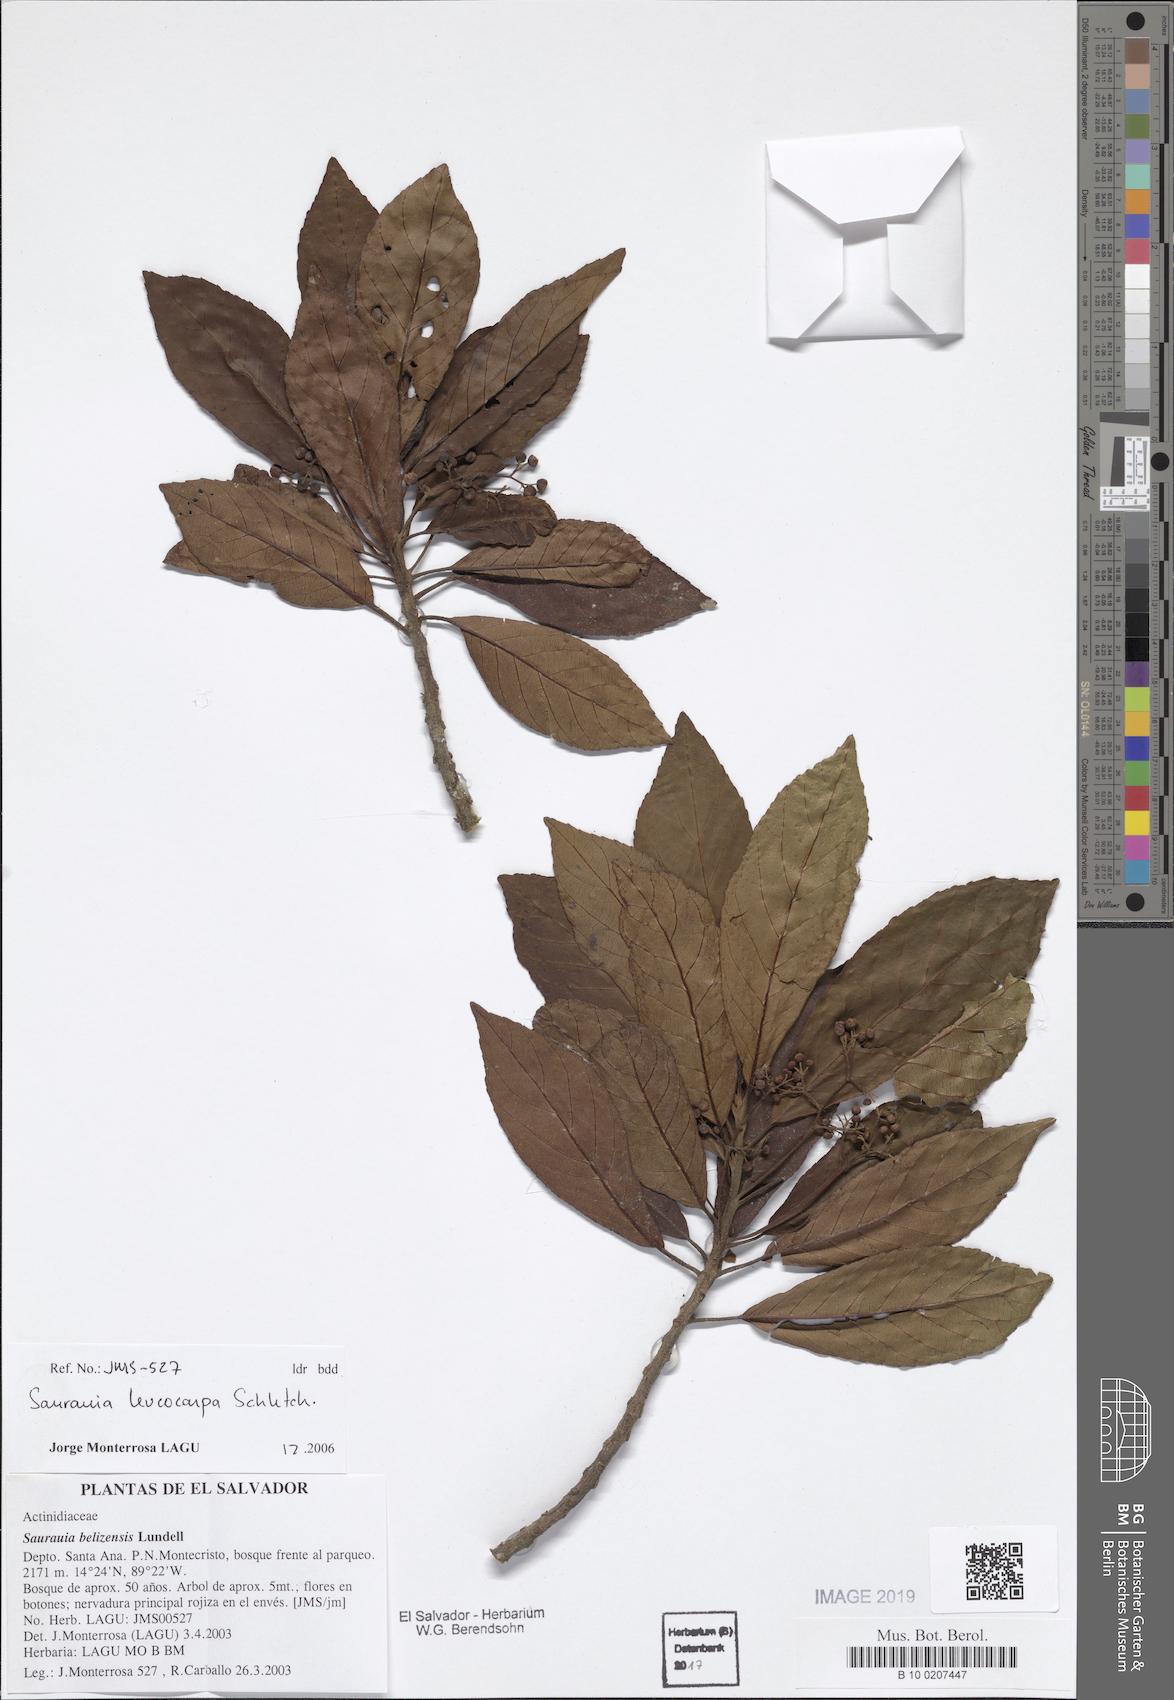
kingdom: Plantae
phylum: Tracheophyta
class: Magnoliopsida
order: Ericales
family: Actinidiaceae
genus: Saurauia
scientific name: Saurauia leucocarpa
